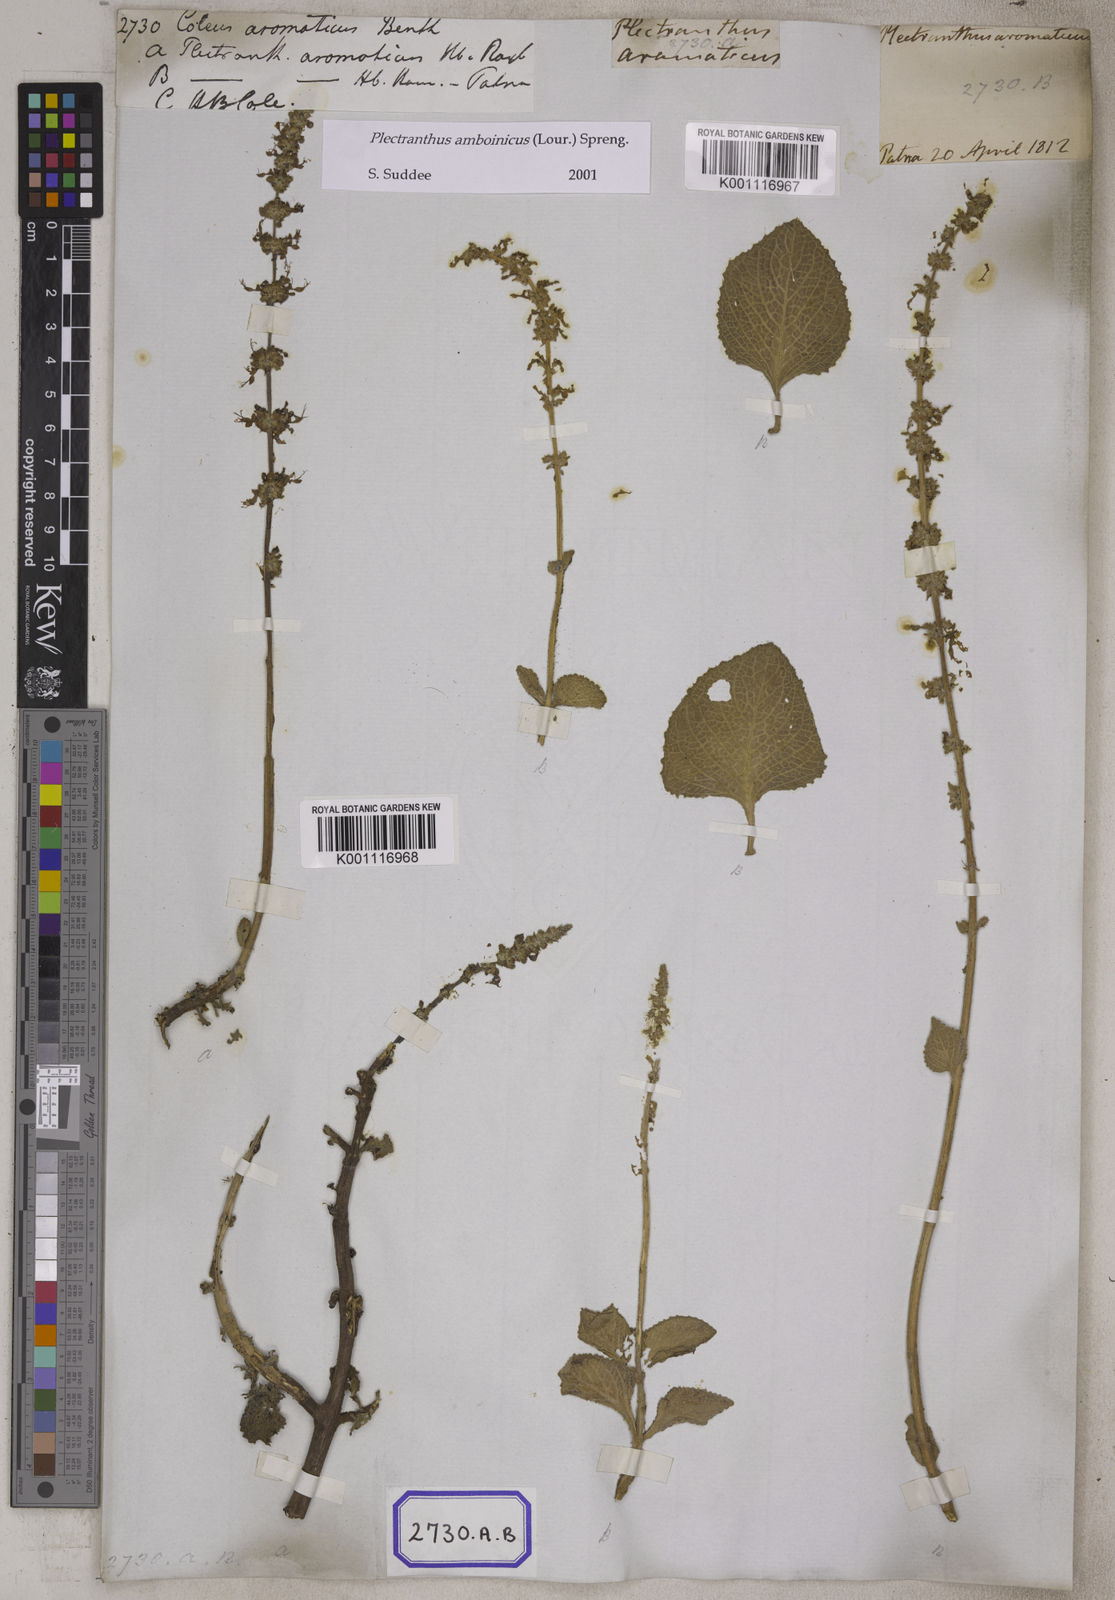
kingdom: Plantae
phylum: Tracheophyta
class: Magnoliopsida
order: Lamiales
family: Lamiaceae
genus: Coleus
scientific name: Coleus amboinicus
